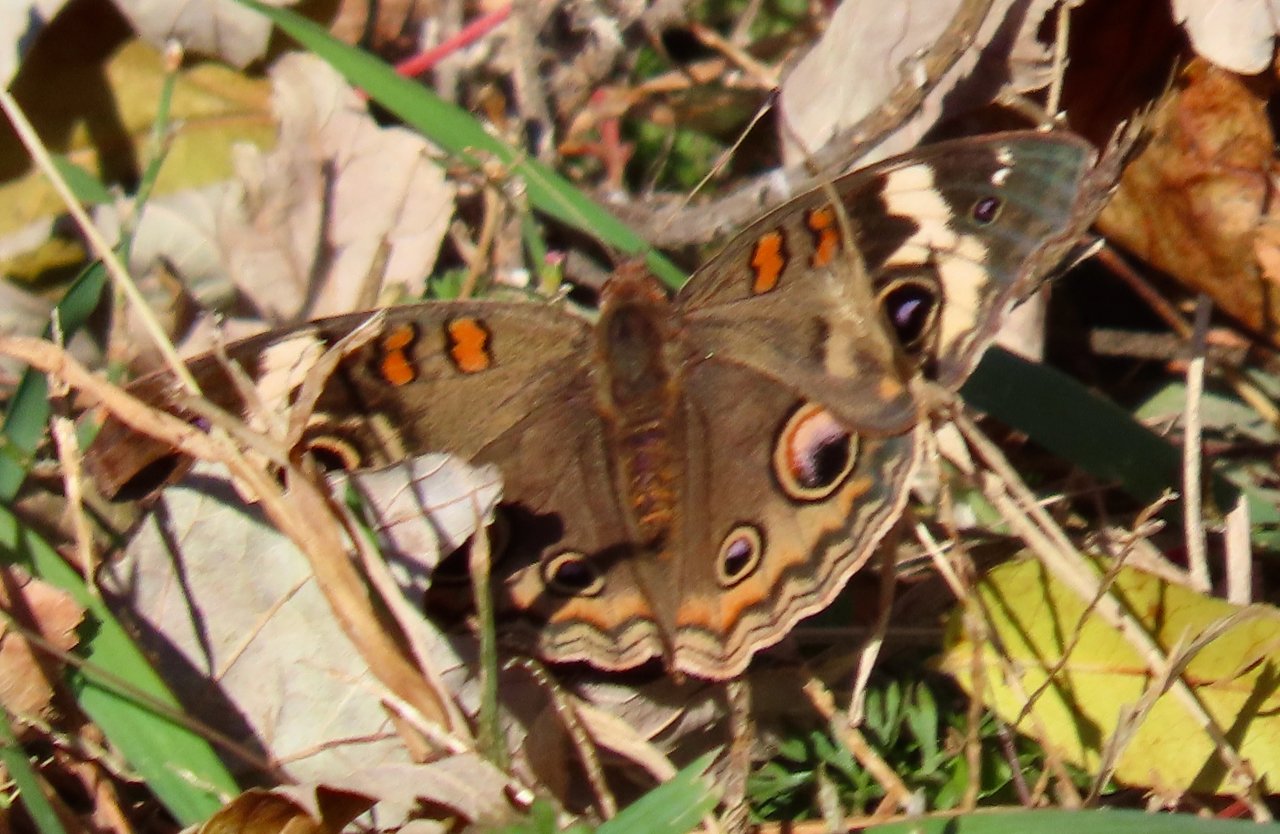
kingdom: Animalia
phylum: Arthropoda
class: Insecta
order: Lepidoptera
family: Nymphalidae
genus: Junonia
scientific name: Junonia coenia
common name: Common Buckeye
